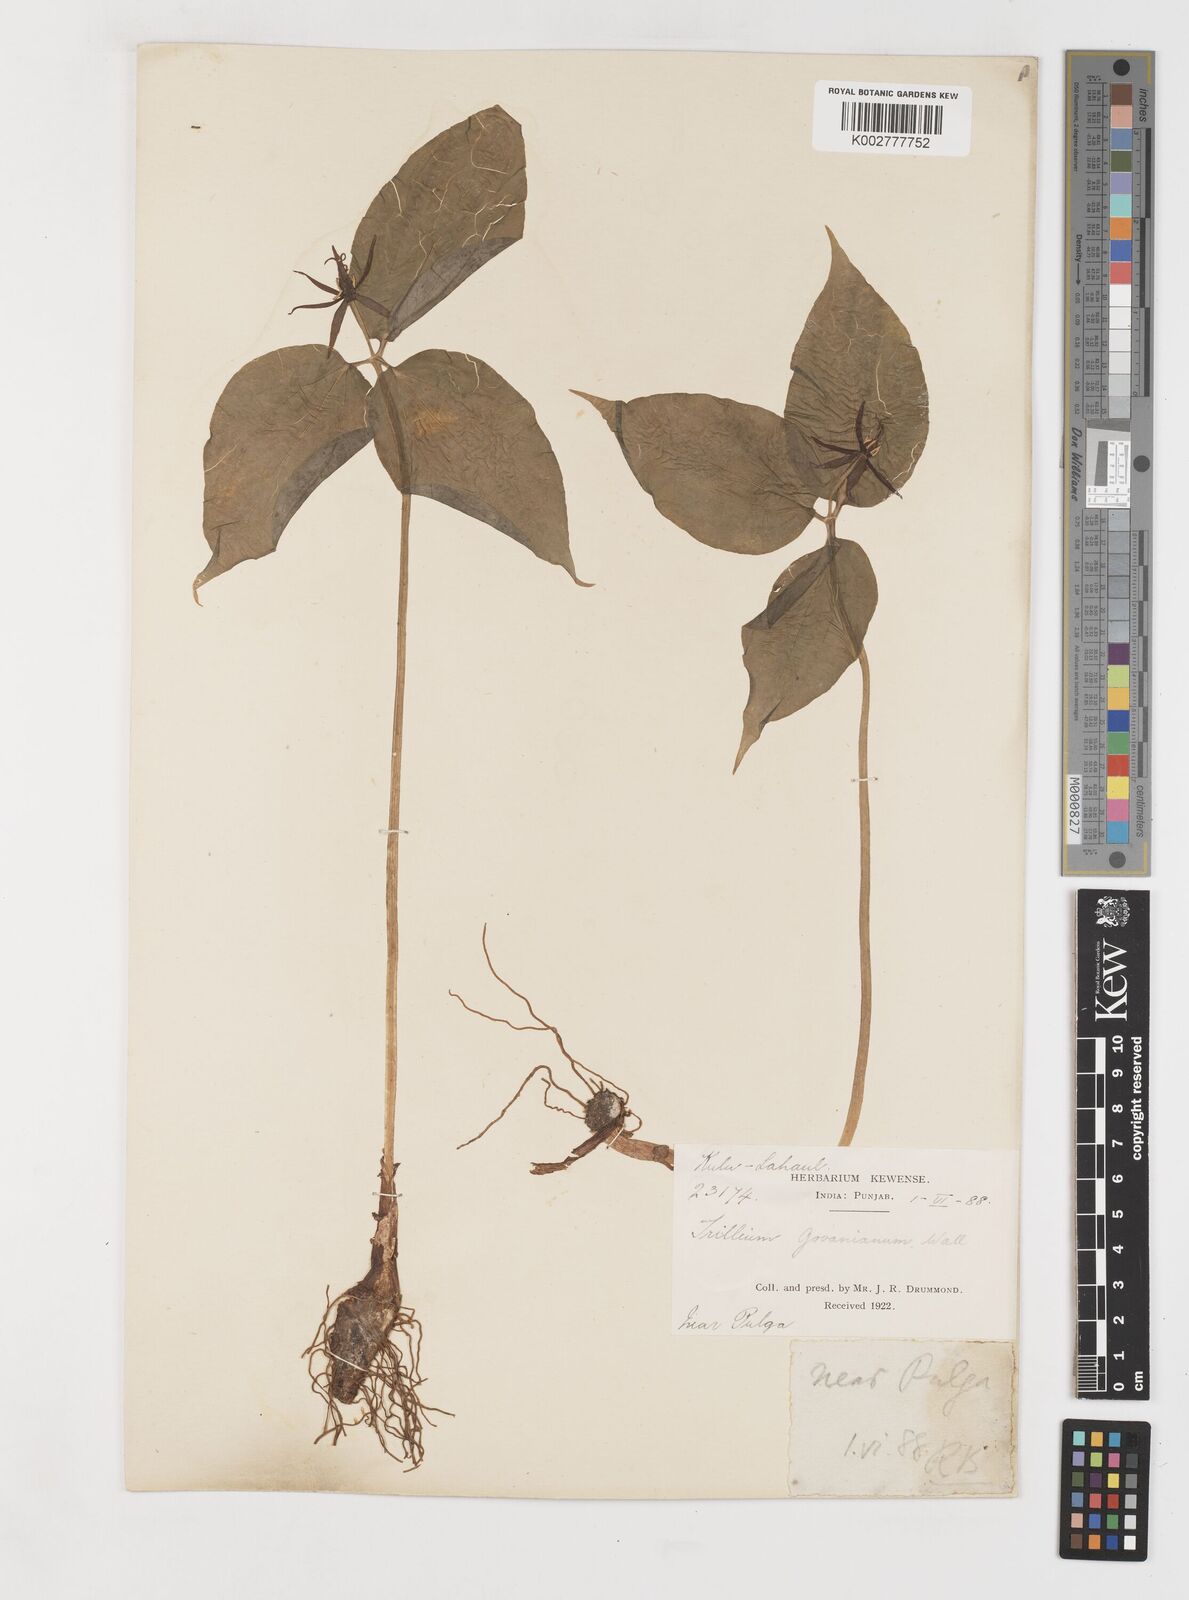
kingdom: Plantae
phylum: Tracheophyta
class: Liliopsida
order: Liliales
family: Melanthiaceae
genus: Trillium
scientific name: Trillium govanianum
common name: Himalayan trillium
